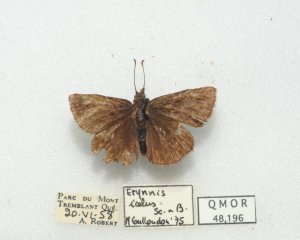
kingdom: Animalia
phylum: Arthropoda
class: Insecta
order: Lepidoptera
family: Hesperiidae
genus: Erynnis
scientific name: Erynnis icelus
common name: Dreamy Duskywing
